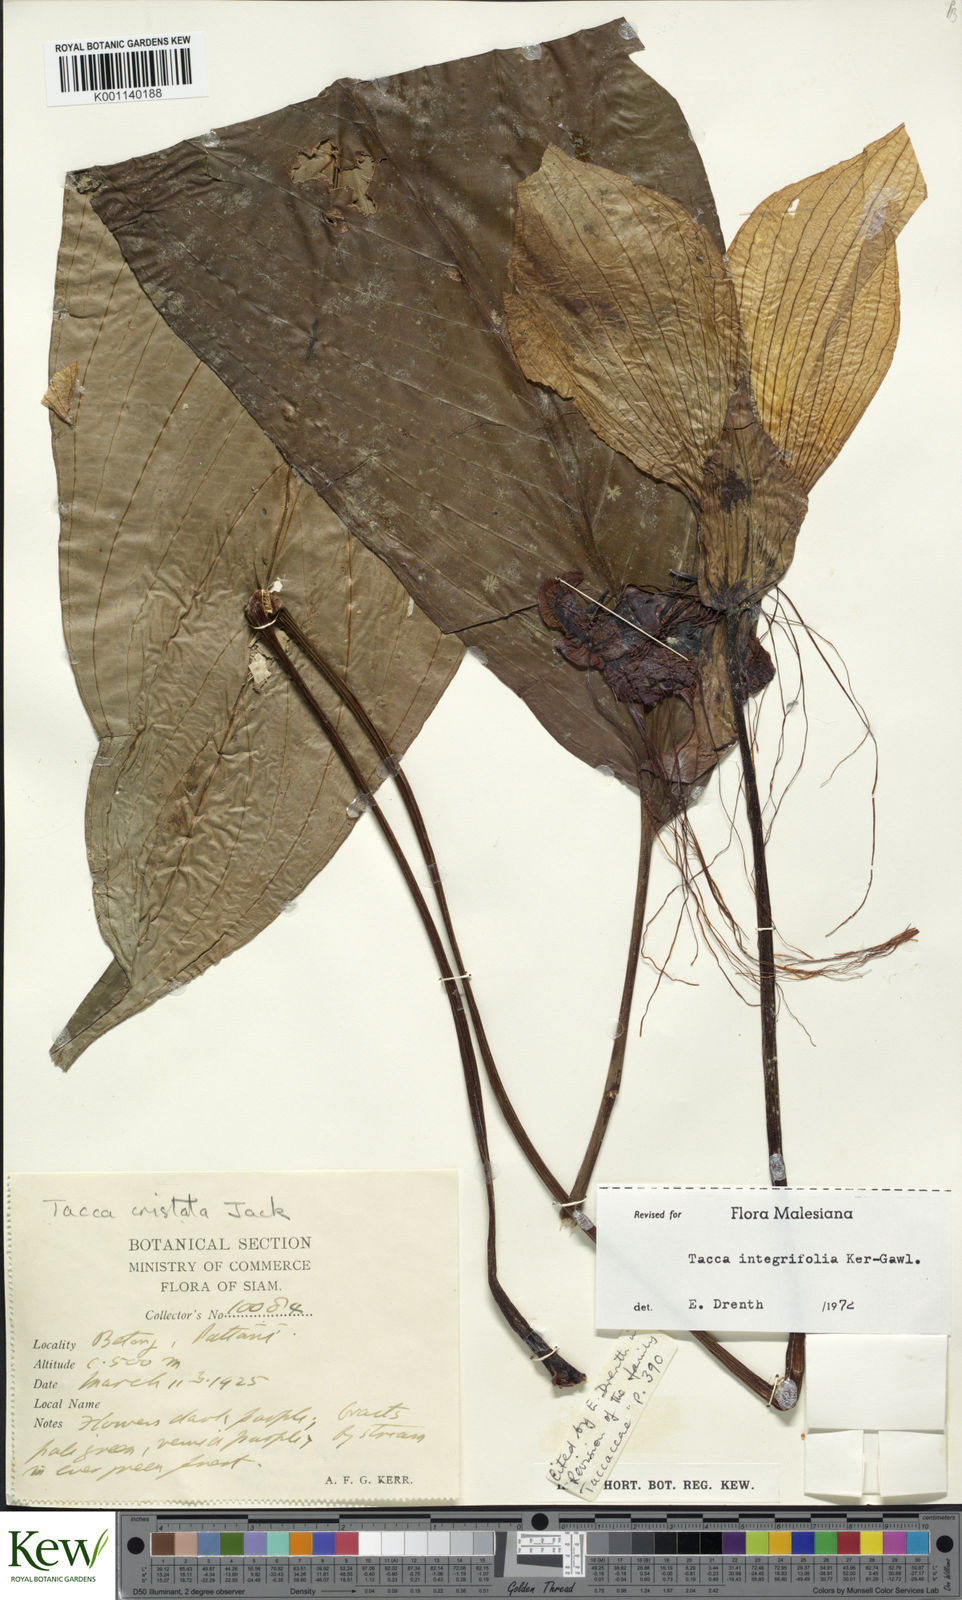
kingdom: Plantae
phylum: Tracheophyta
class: Liliopsida
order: Dioscoreales
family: Dioscoreaceae
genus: Tacca
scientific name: Tacca integrifolia
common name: Batplant
